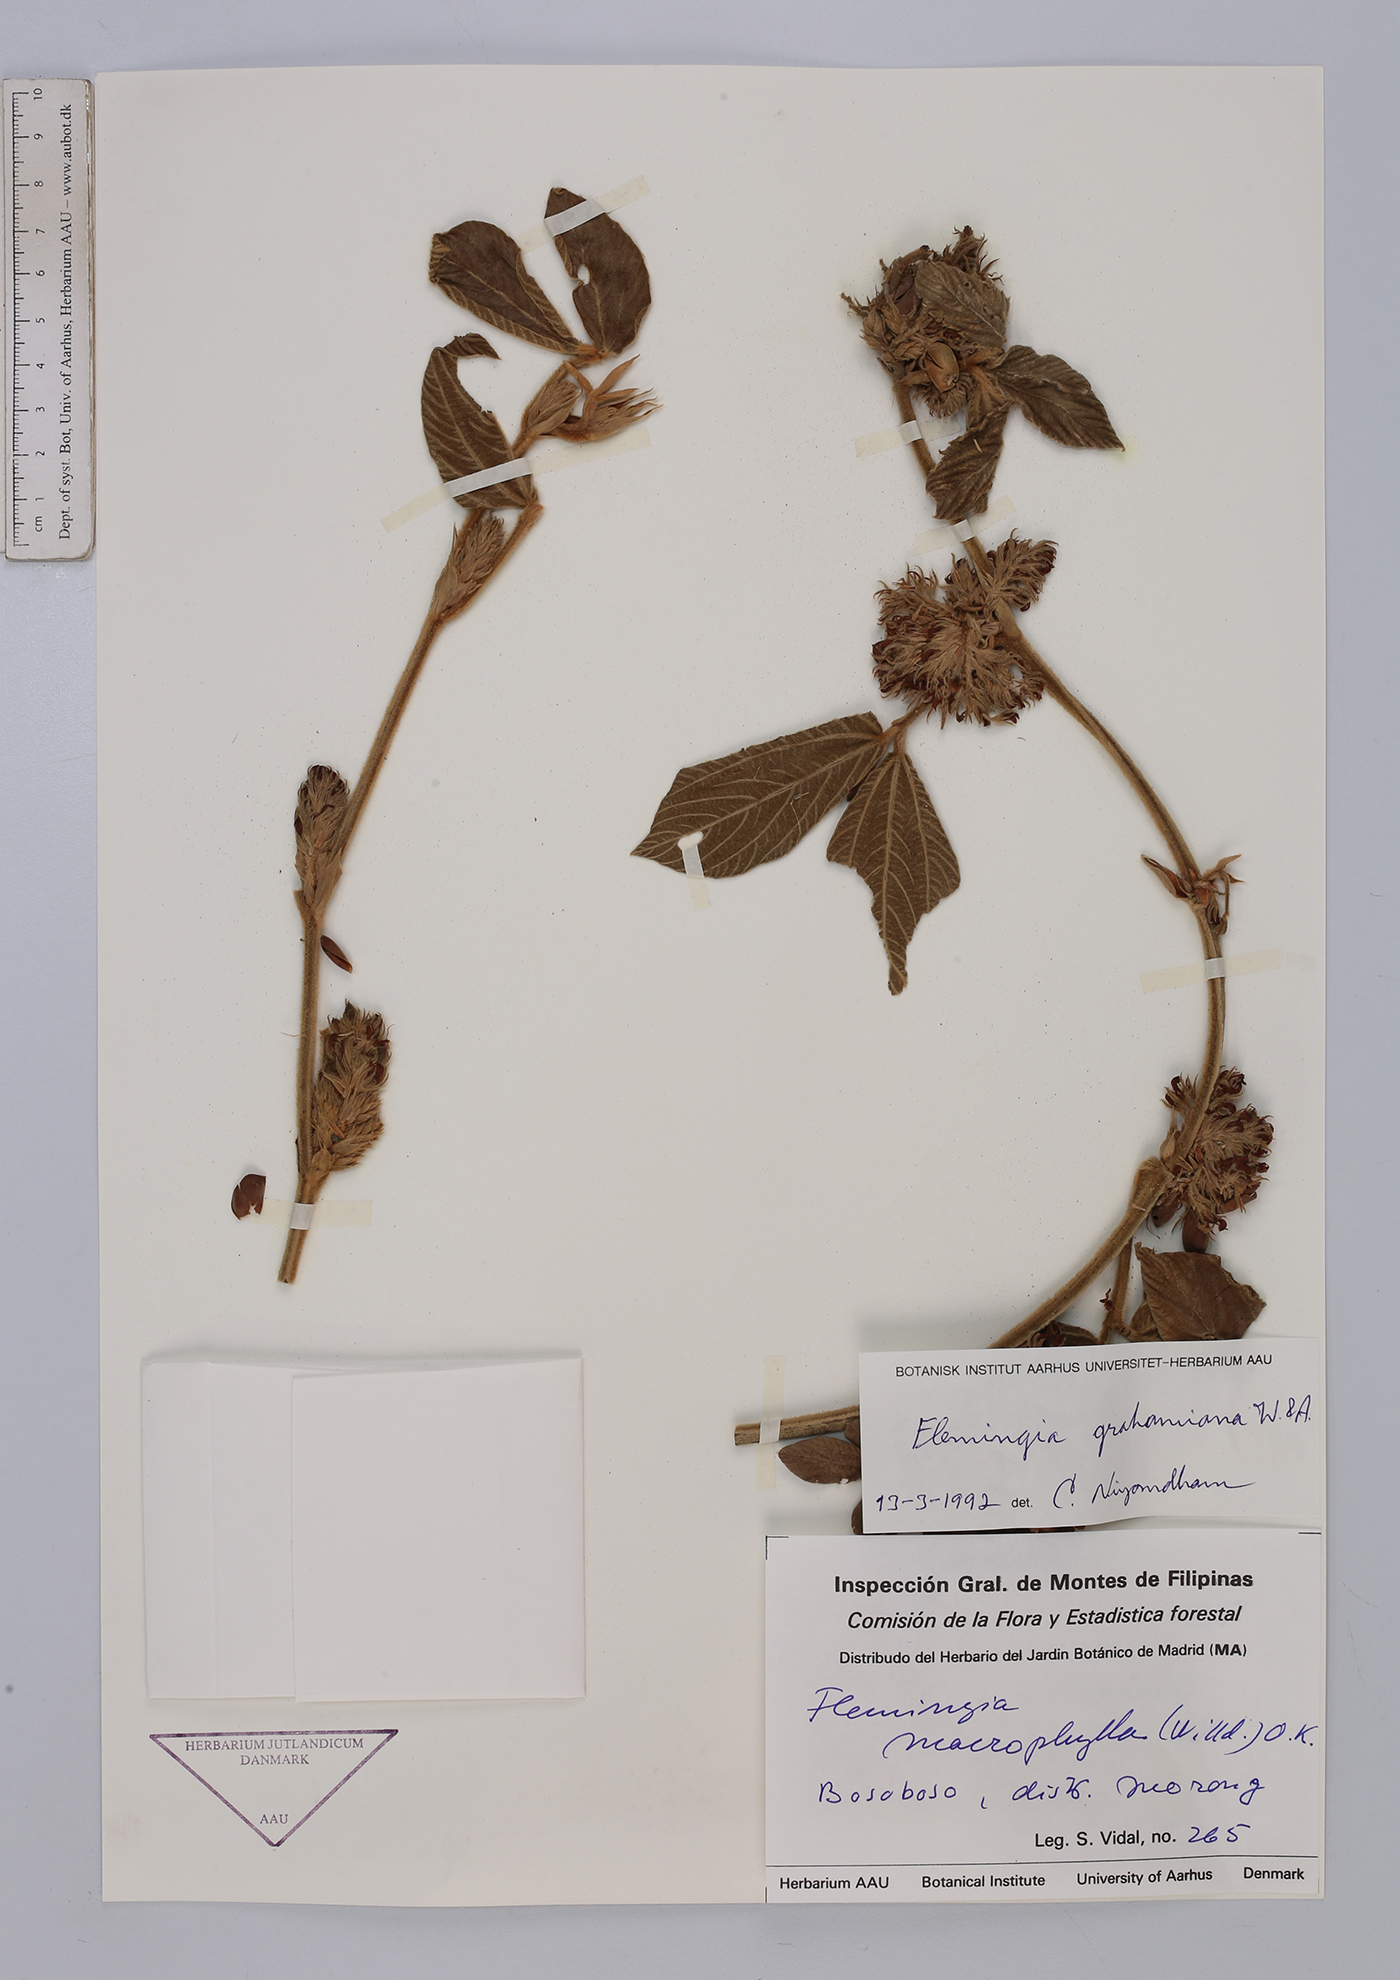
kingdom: Plantae
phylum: Tracheophyta
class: Magnoliopsida
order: Fabales
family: Fabaceae
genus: Flemingia
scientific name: Flemingia grahamiana
